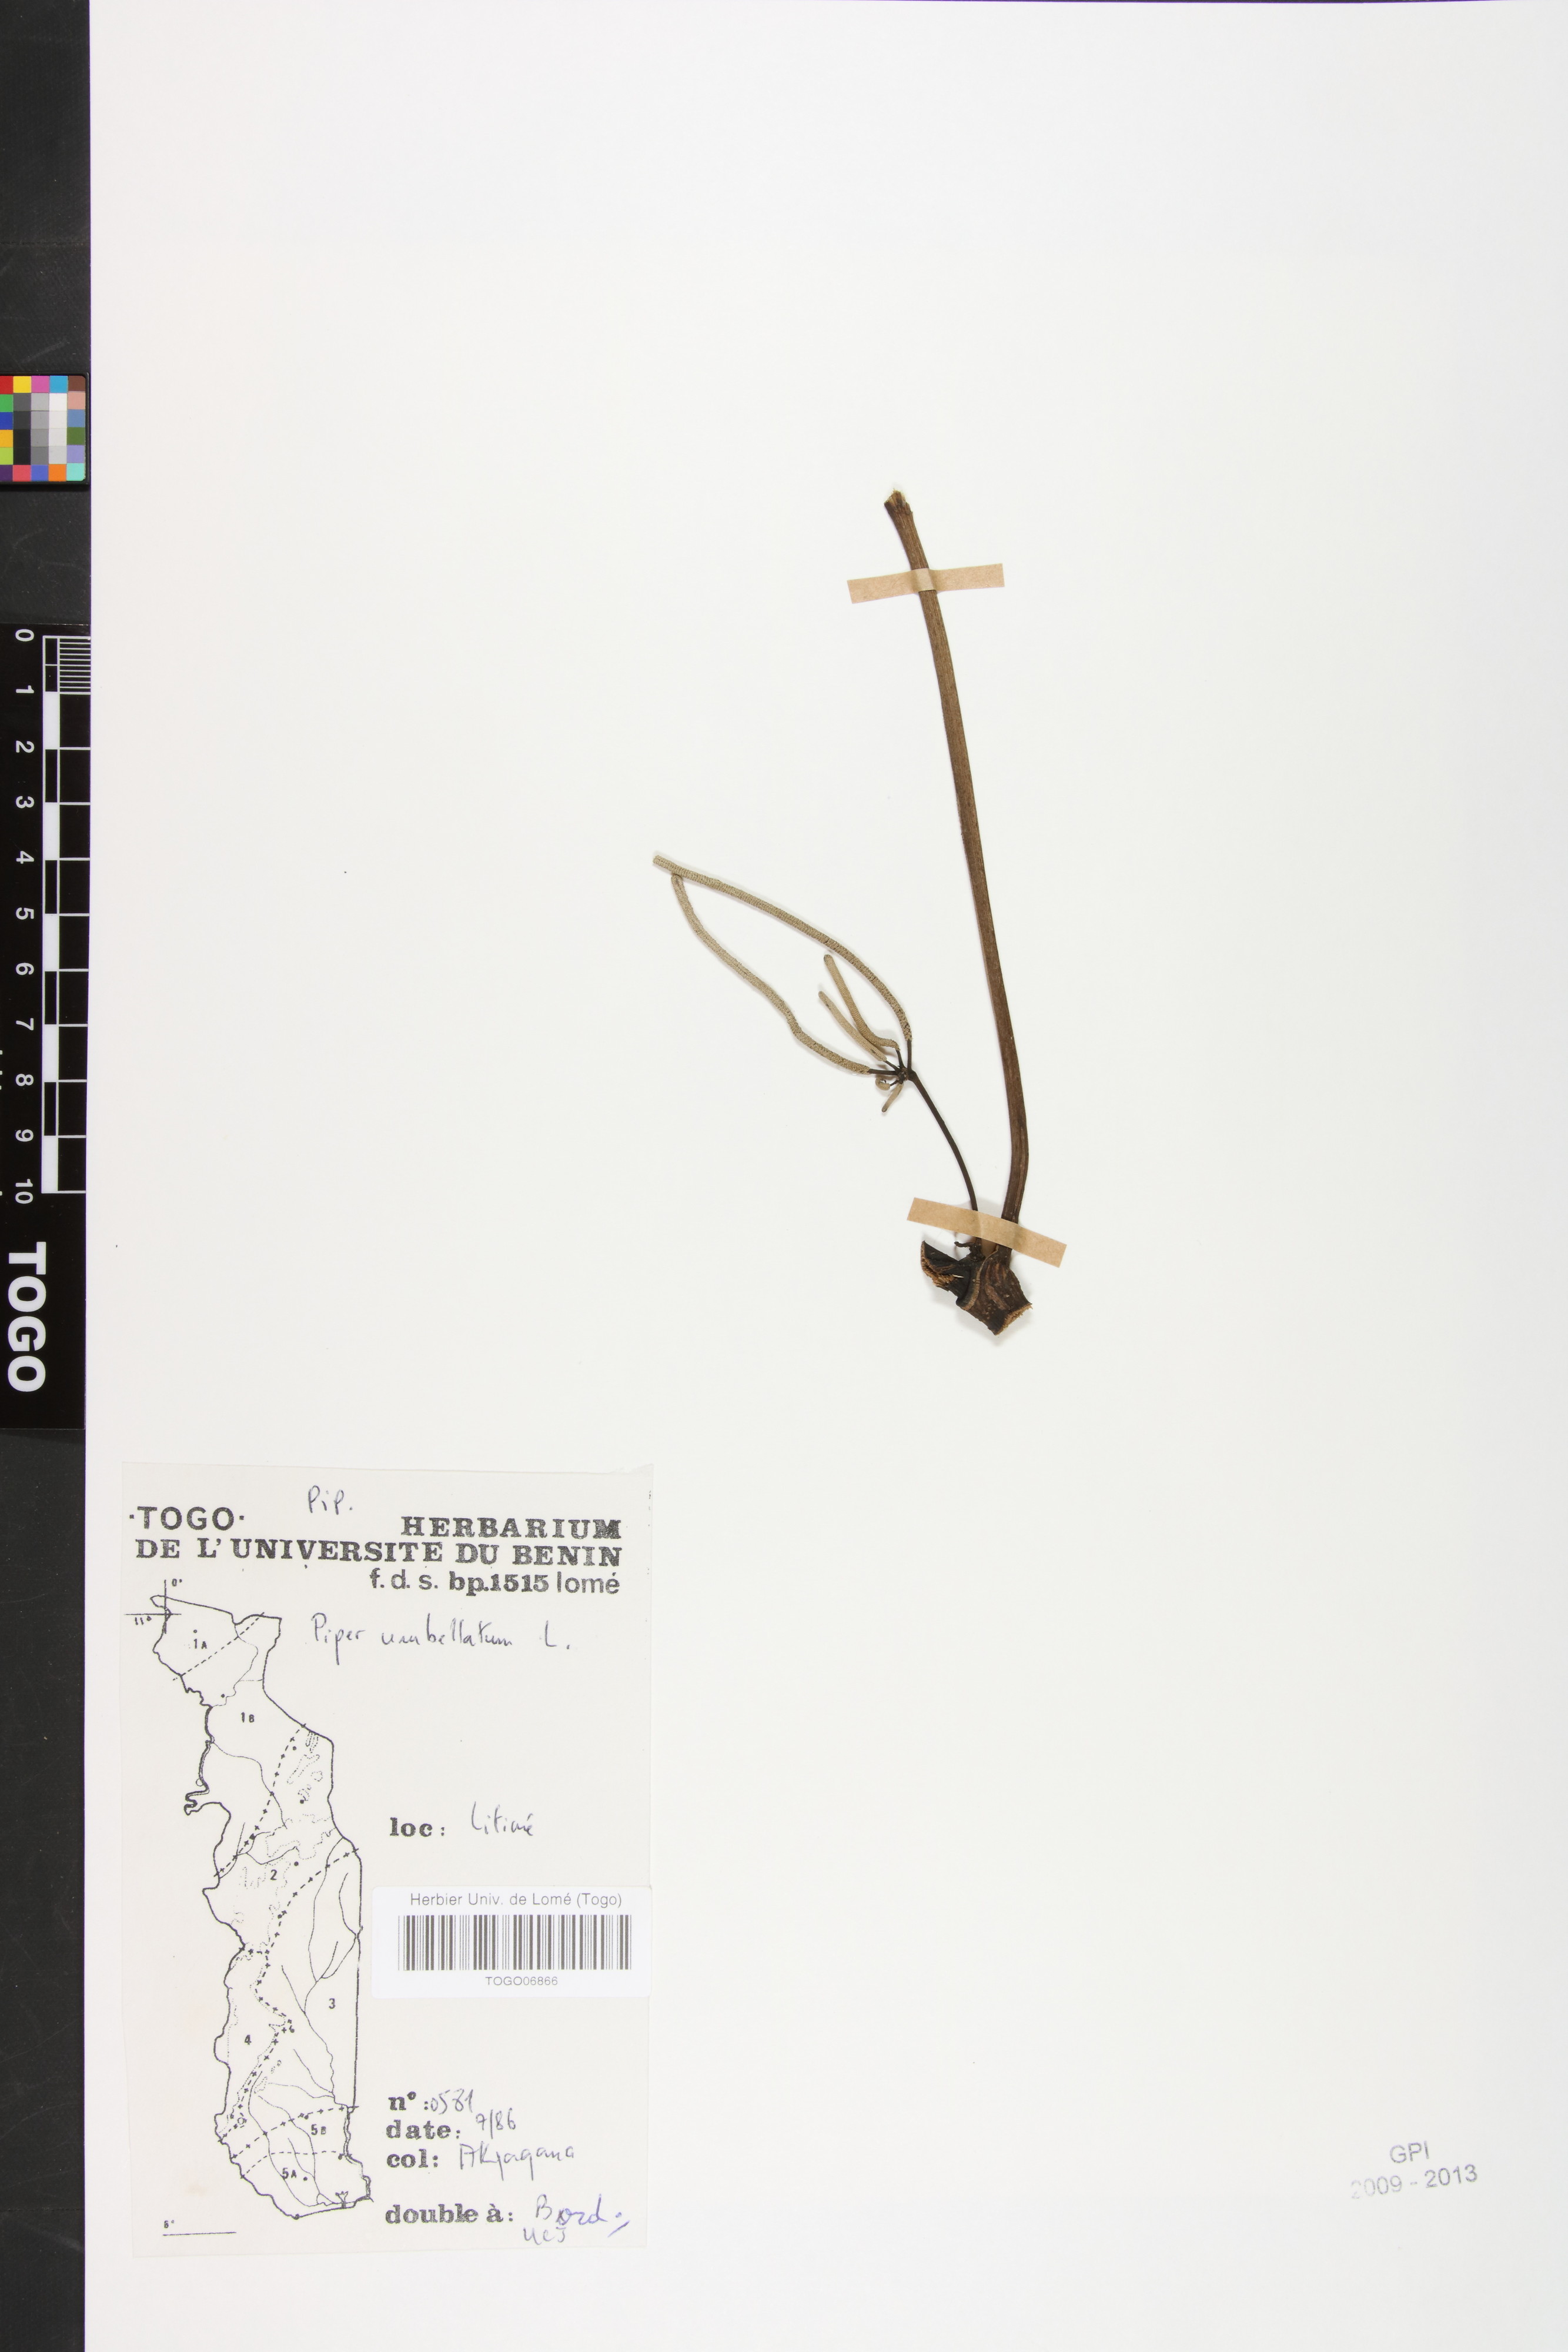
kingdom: Plantae
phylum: Tracheophyta
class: Magnoliopsida
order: Piperales
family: Piperaceae
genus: Piper
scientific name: Piper umbellatum
